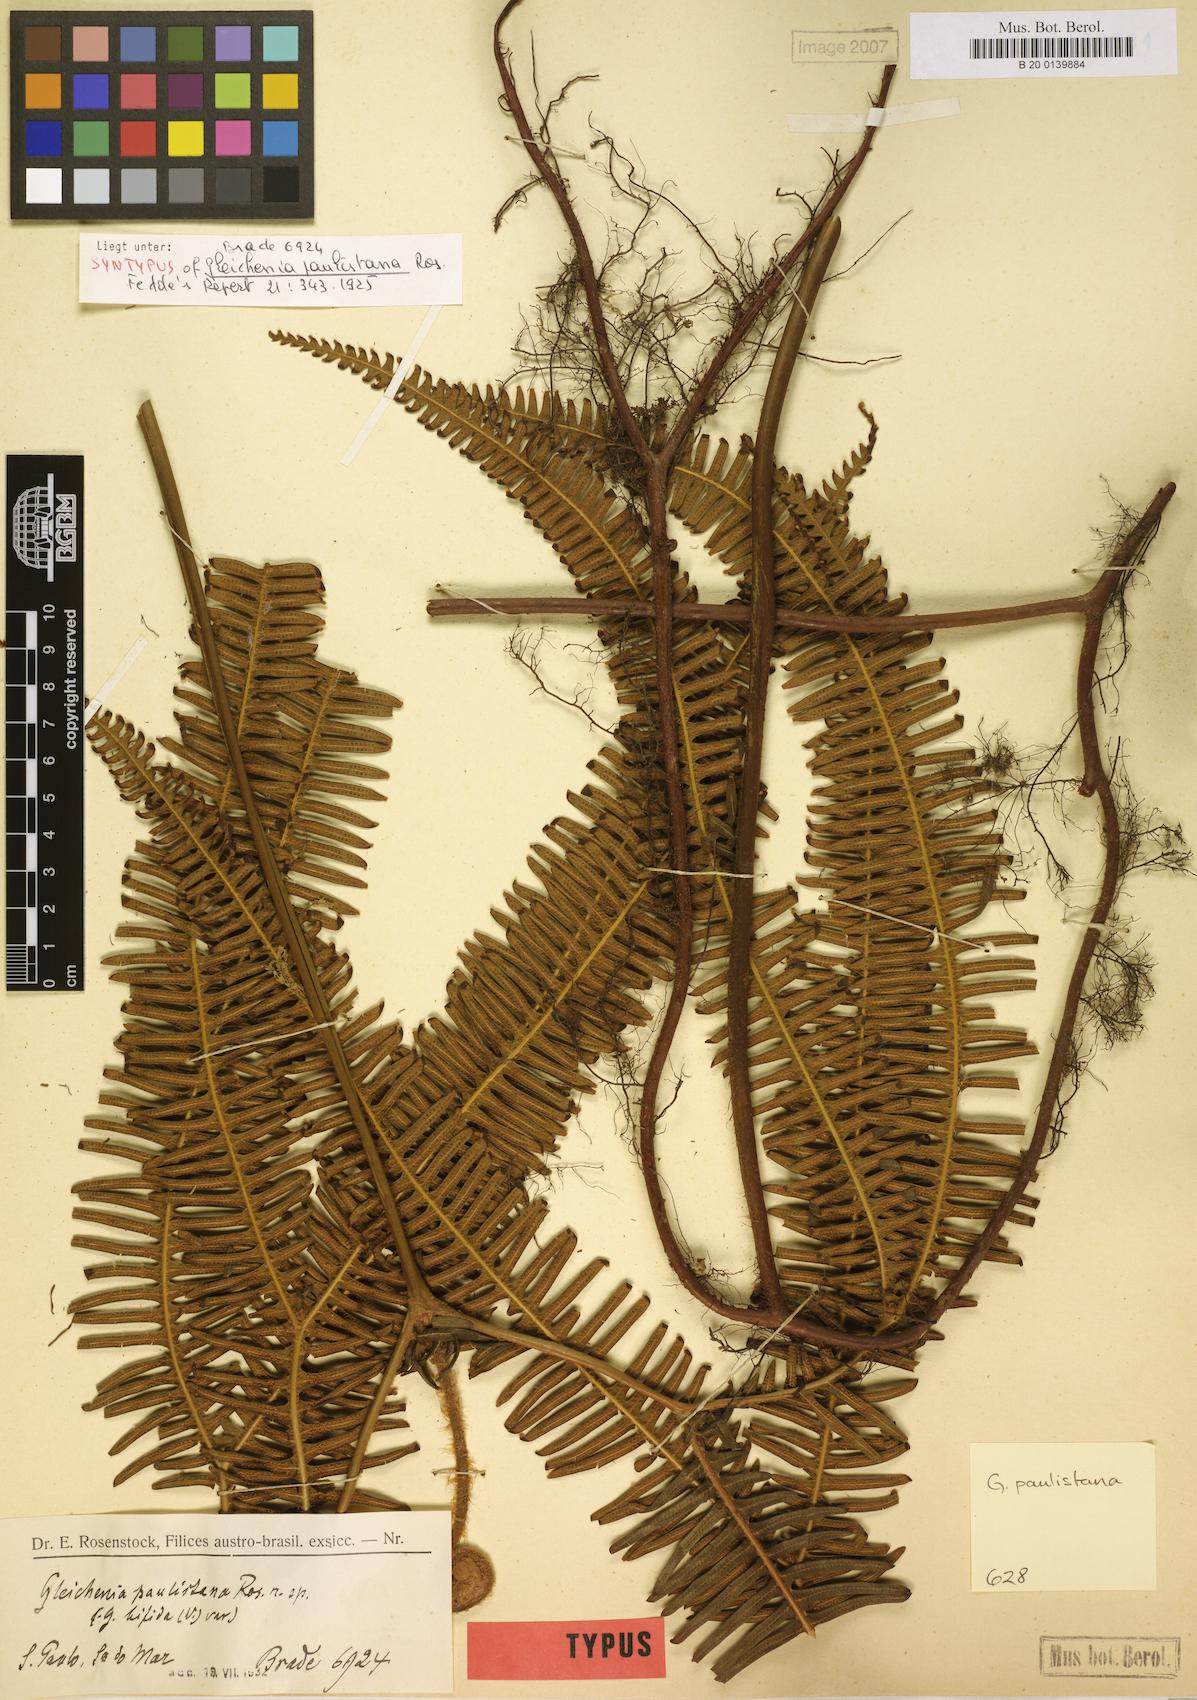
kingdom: Plantae
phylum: Tracheophyta
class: Polypodiopsida
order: Gleicheniales
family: Gleicheniaceae
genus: Sticherus
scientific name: Sticherus squamosus
